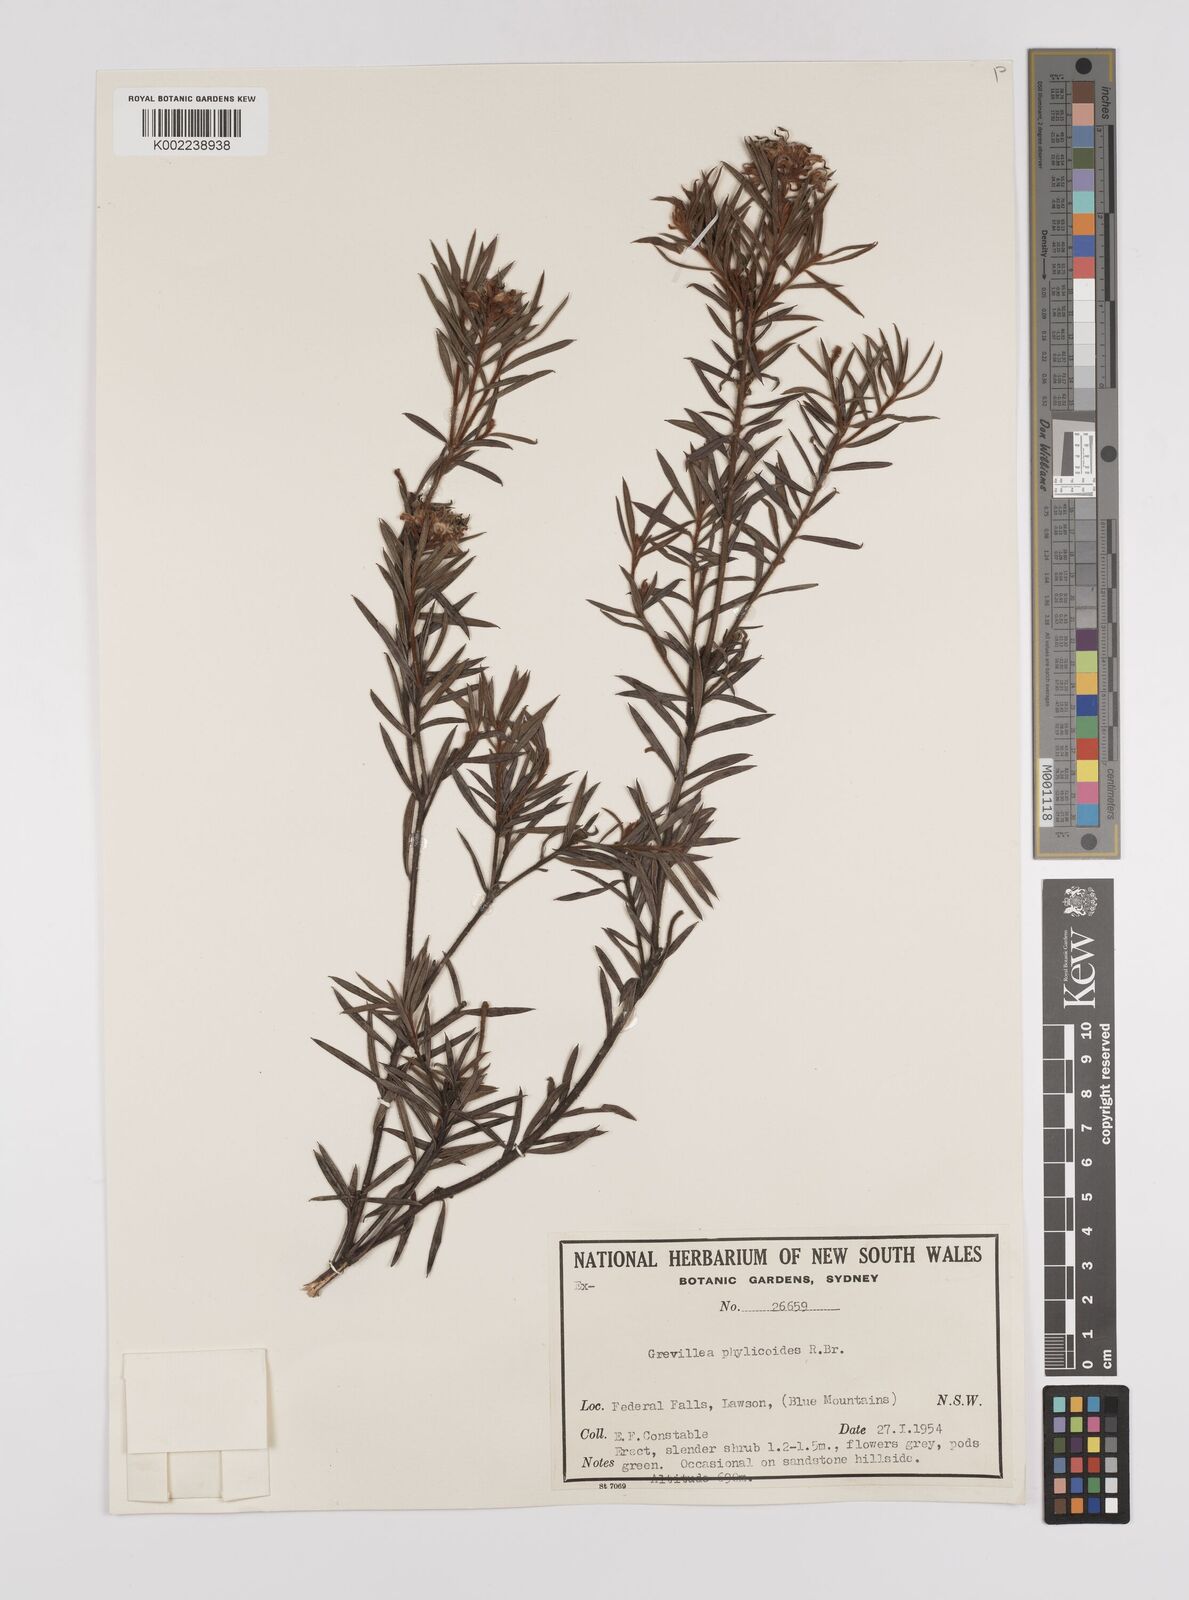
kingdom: Plantae
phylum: Tracheophyta
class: Magnoliopsida
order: Proteales
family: Proteaceae
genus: Grevillea
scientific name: Grevillea phylicoides
